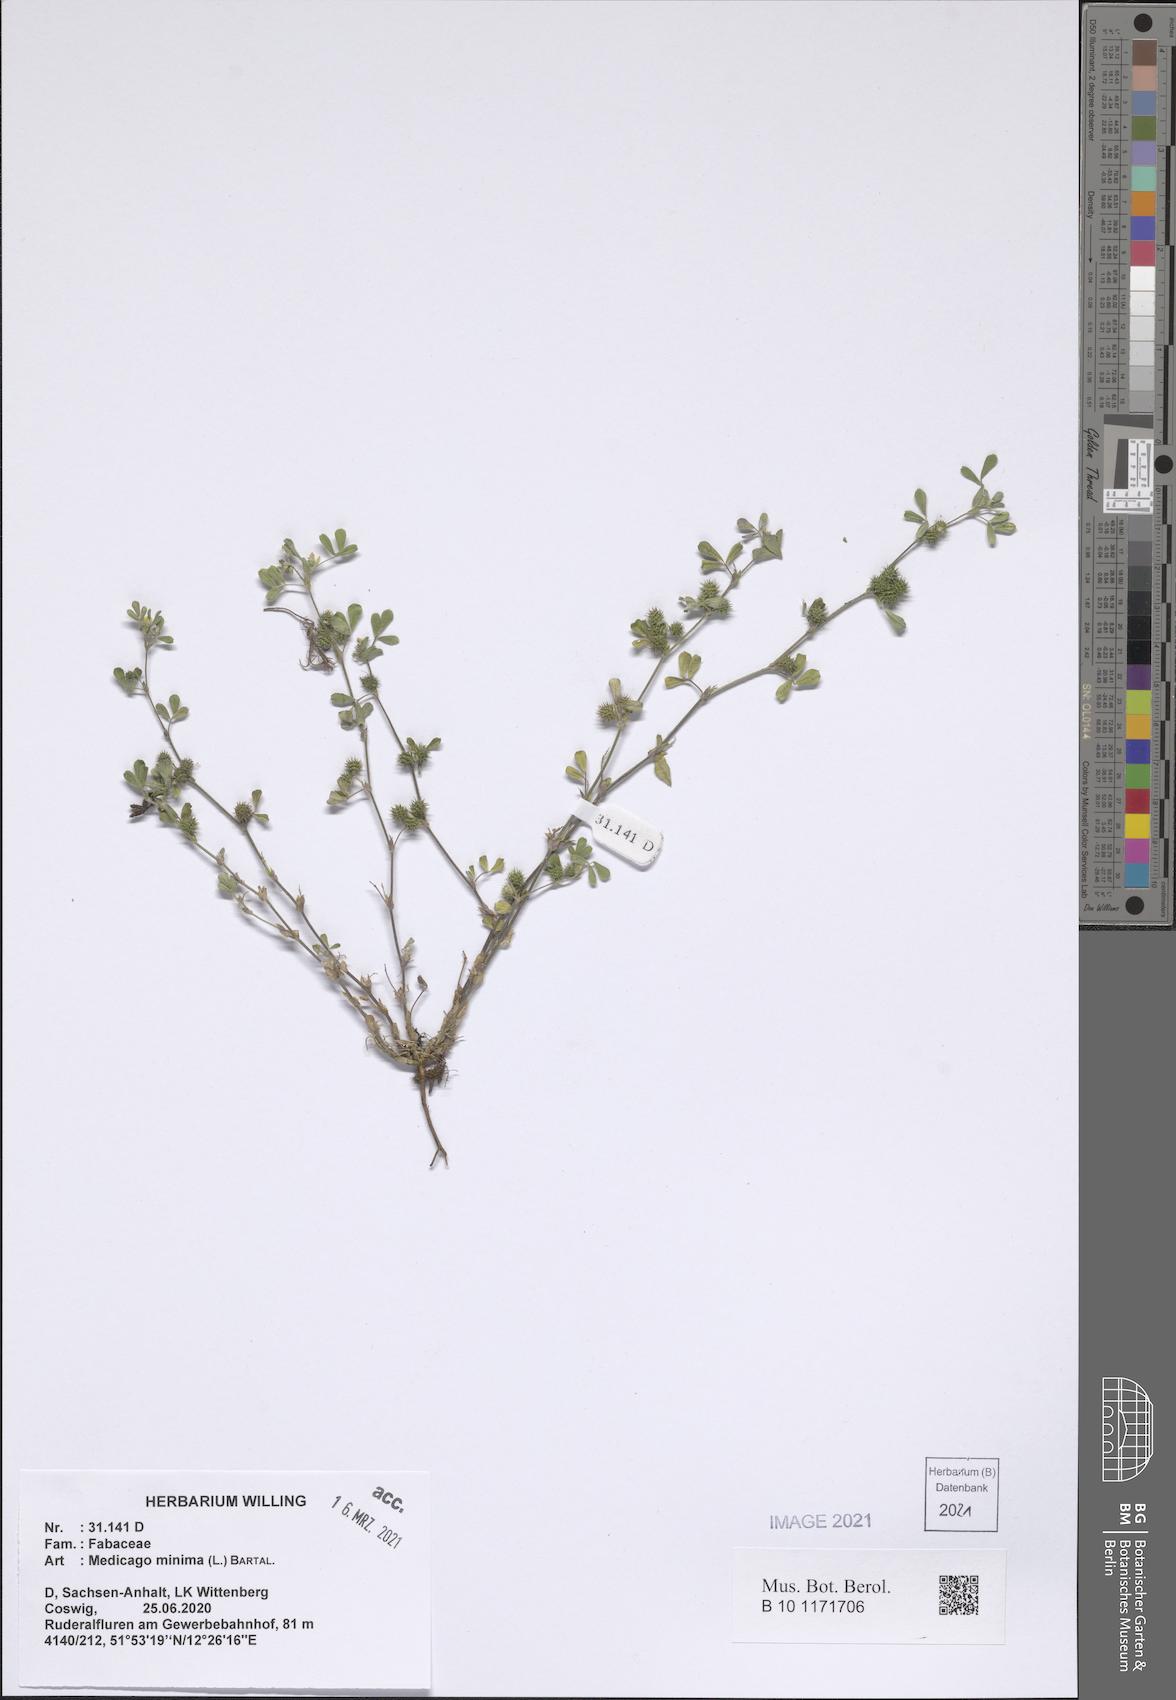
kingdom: Plantae
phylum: Tracheophyta
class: Magnoliopsida
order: Fabales
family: Fabaceae
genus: Medicago
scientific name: Medicago minima
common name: Little bur-clover
